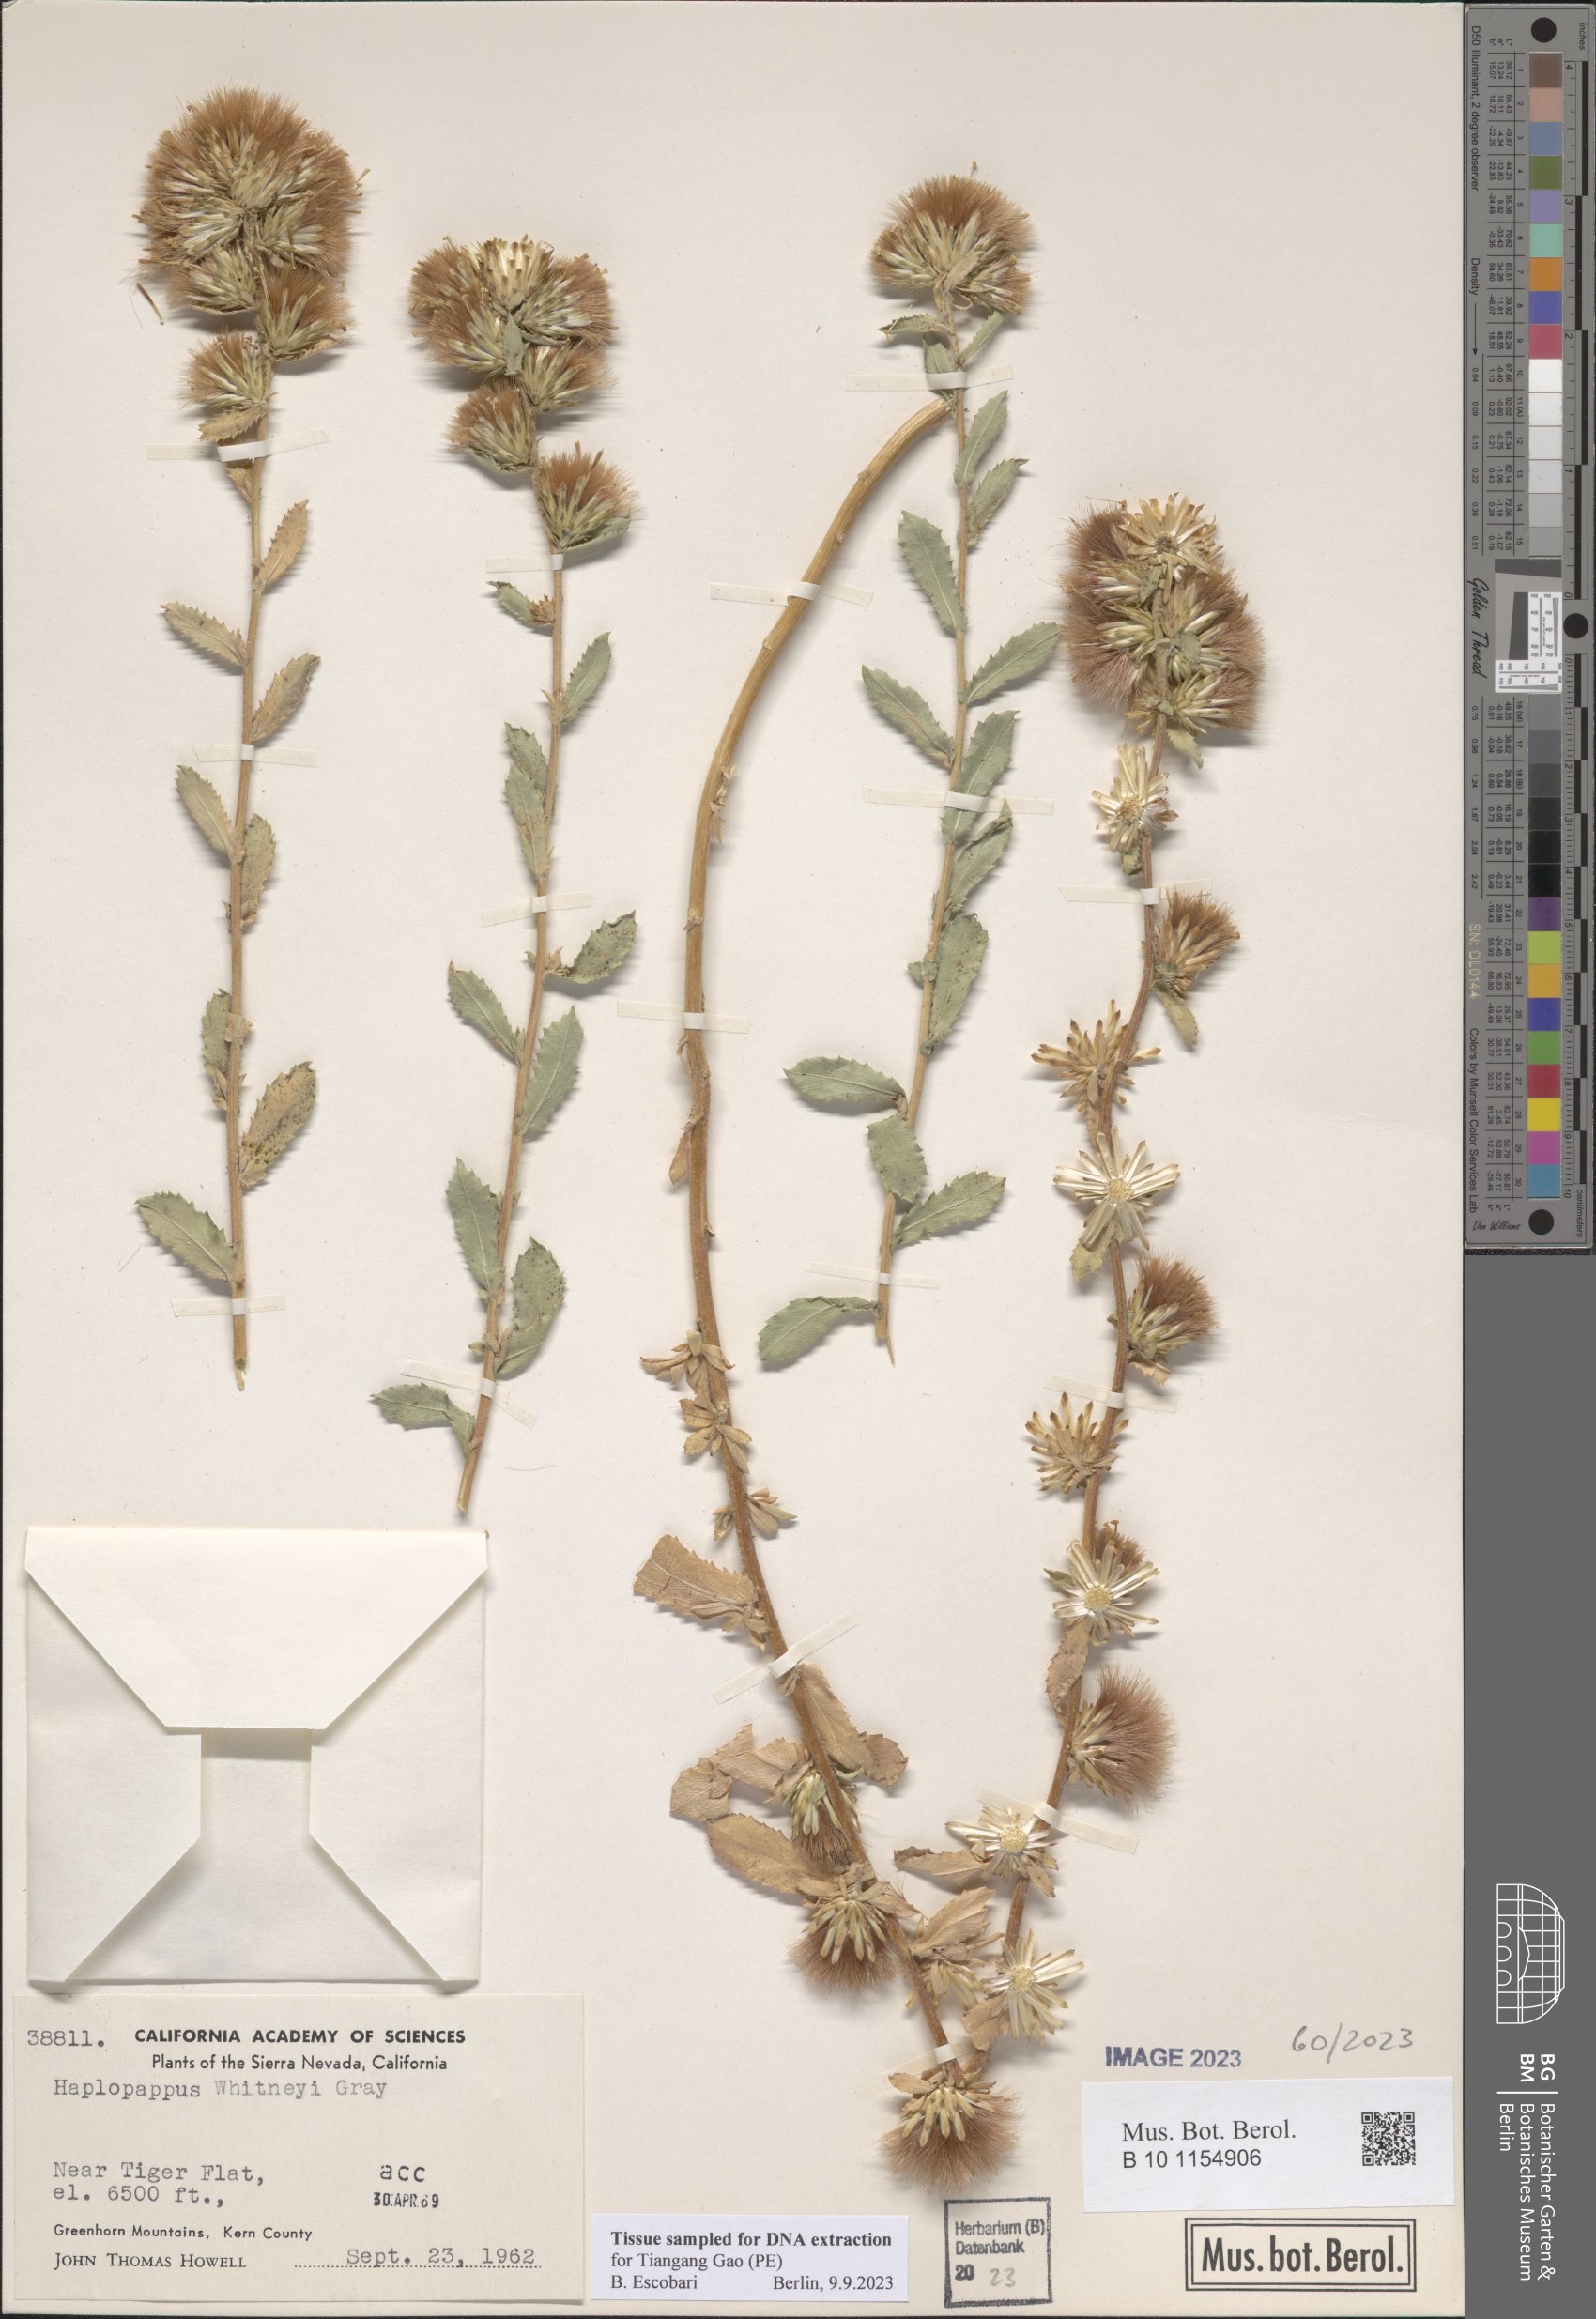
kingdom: Plantae
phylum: Tracheophyta
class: Magnoliopsida
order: Asterales
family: Asteraceae
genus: Adeia
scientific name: Adeia whitneyi
